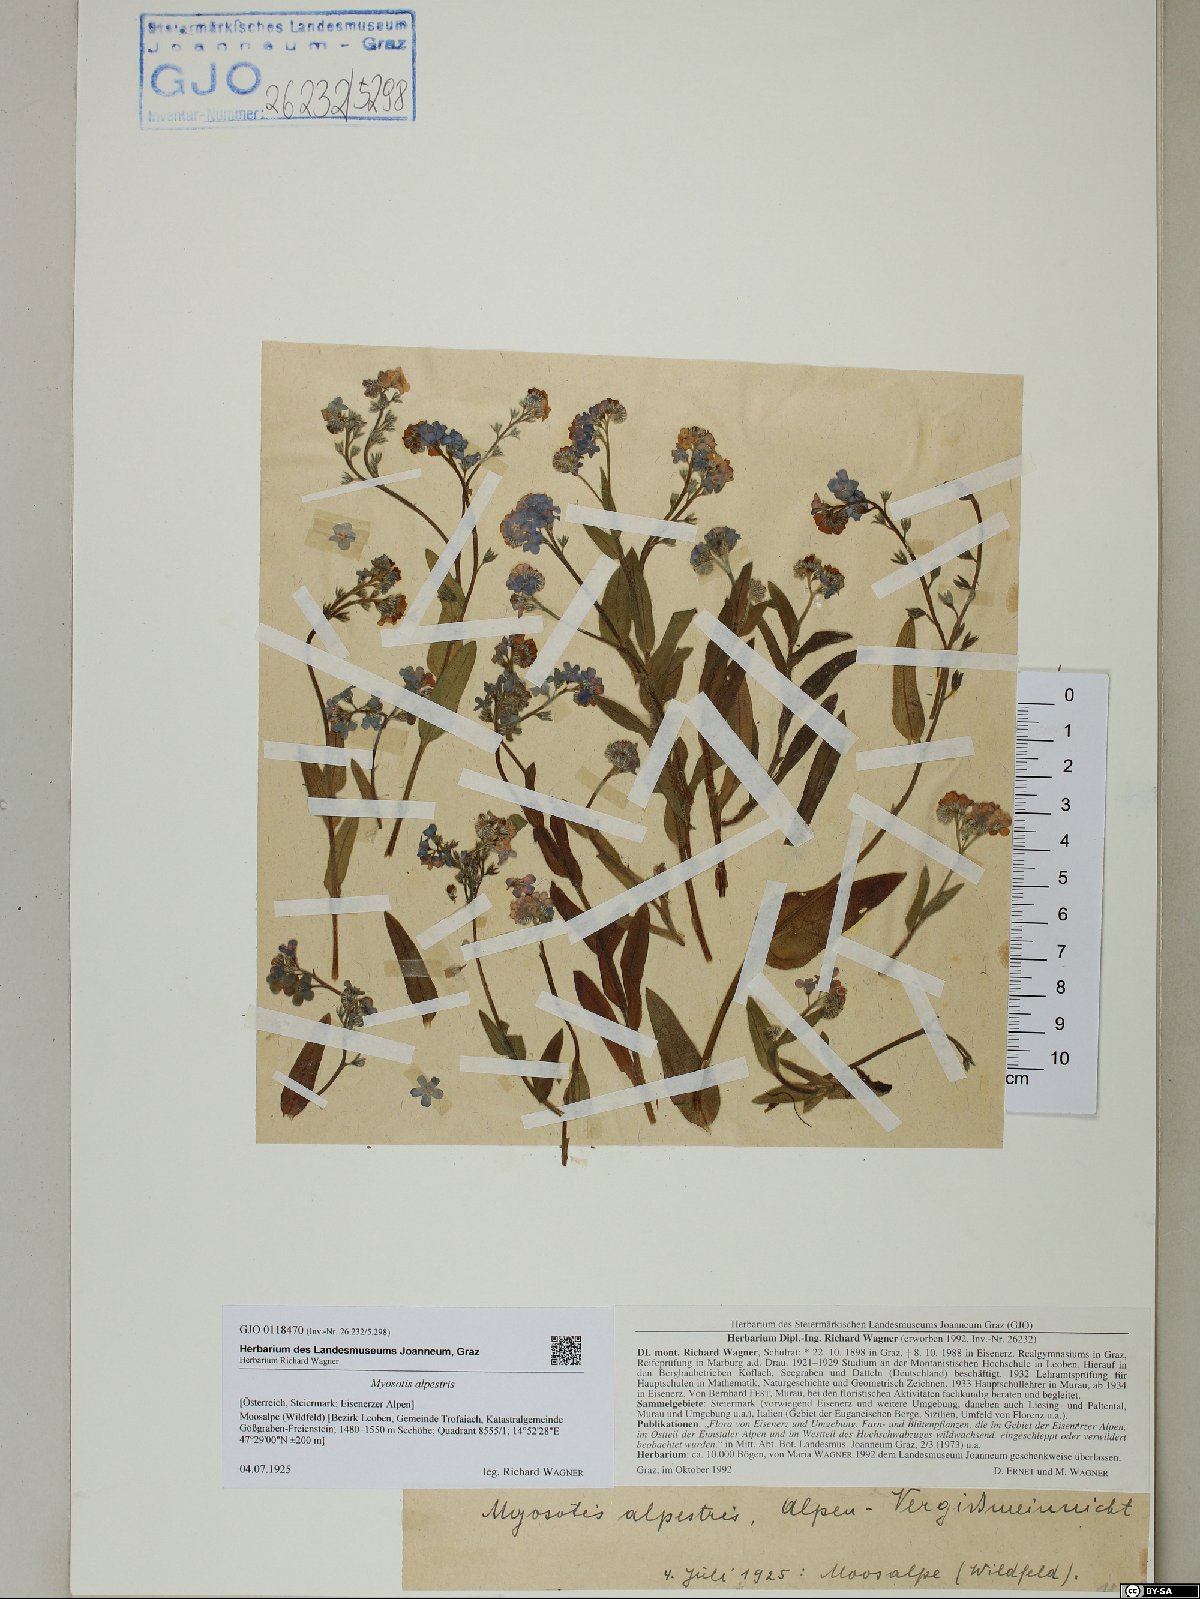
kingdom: Plantae
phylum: Tracheophyta
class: Magnoliopsida
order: Boraginales
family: Boraginaceae
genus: Myosotis
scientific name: Myosotis alpestris
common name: Alpine forget-me-not
